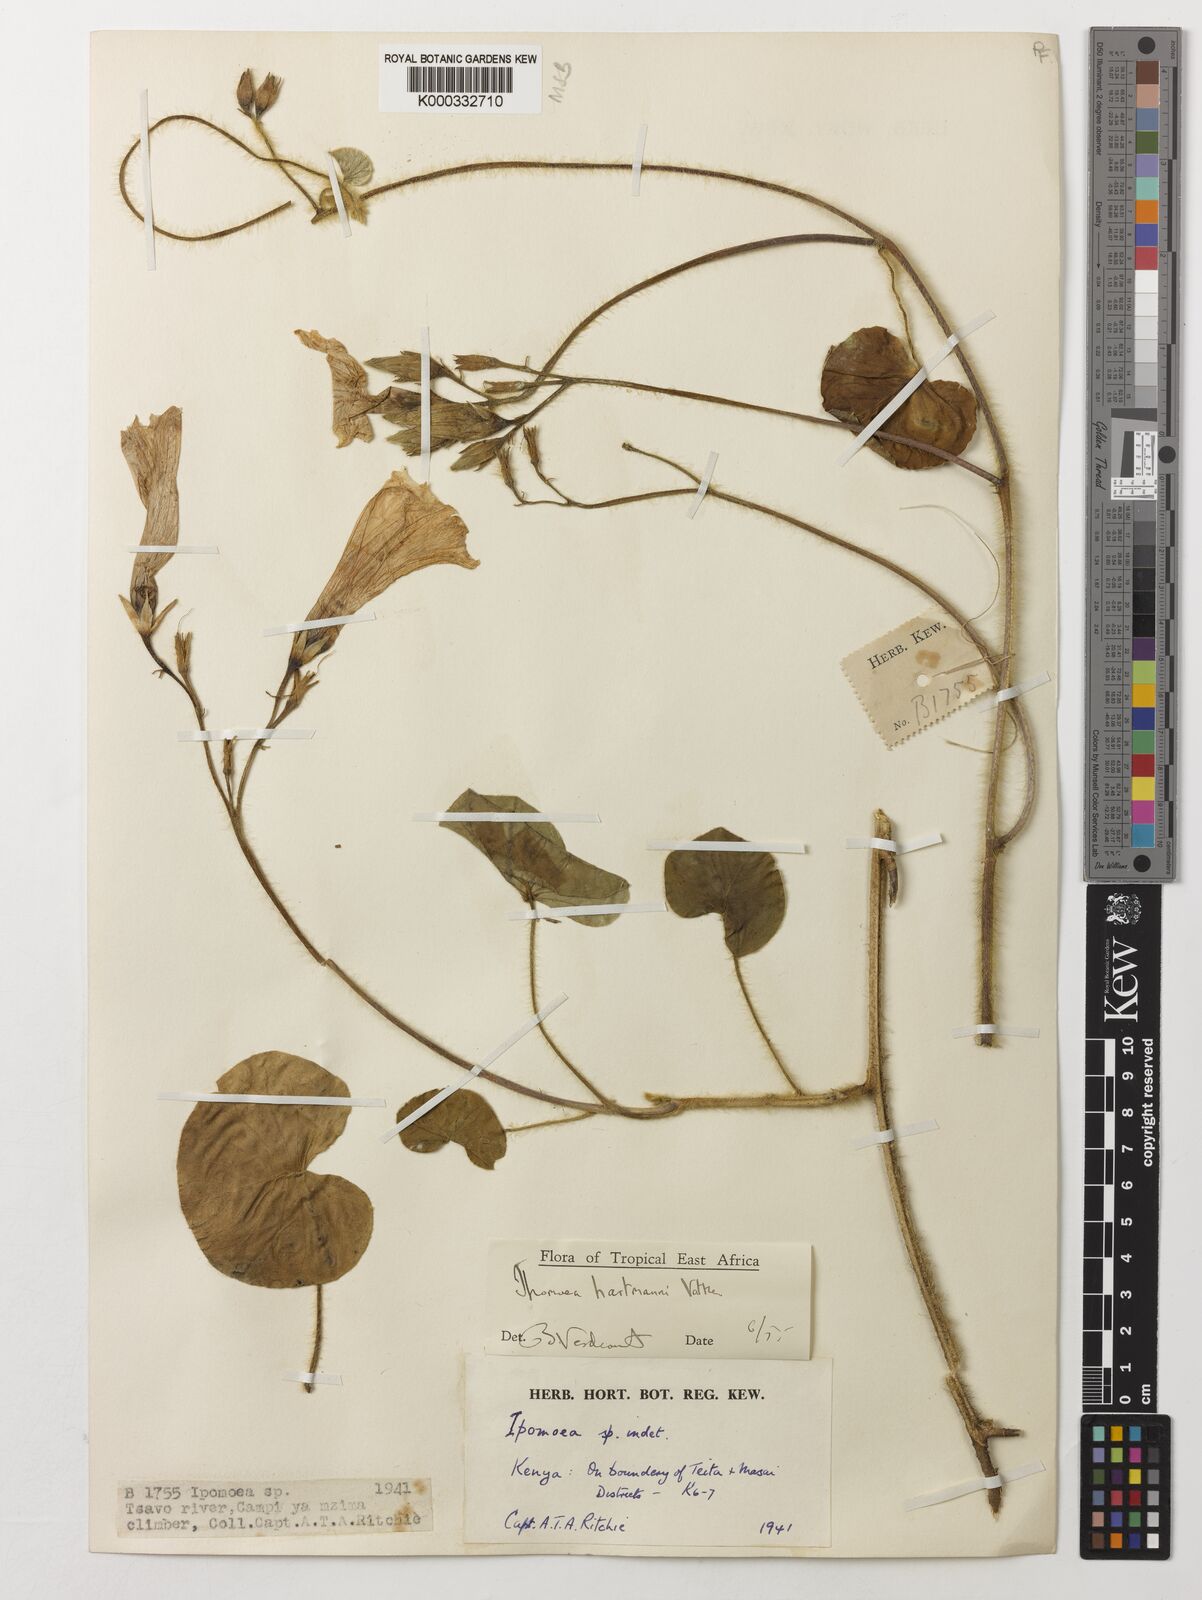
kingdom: Plantae
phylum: Tracheophyta
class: Magnoliopsida
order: Solanales
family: Convolvulaceae
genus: Ipomoea
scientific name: Ipomoea hartmannii
